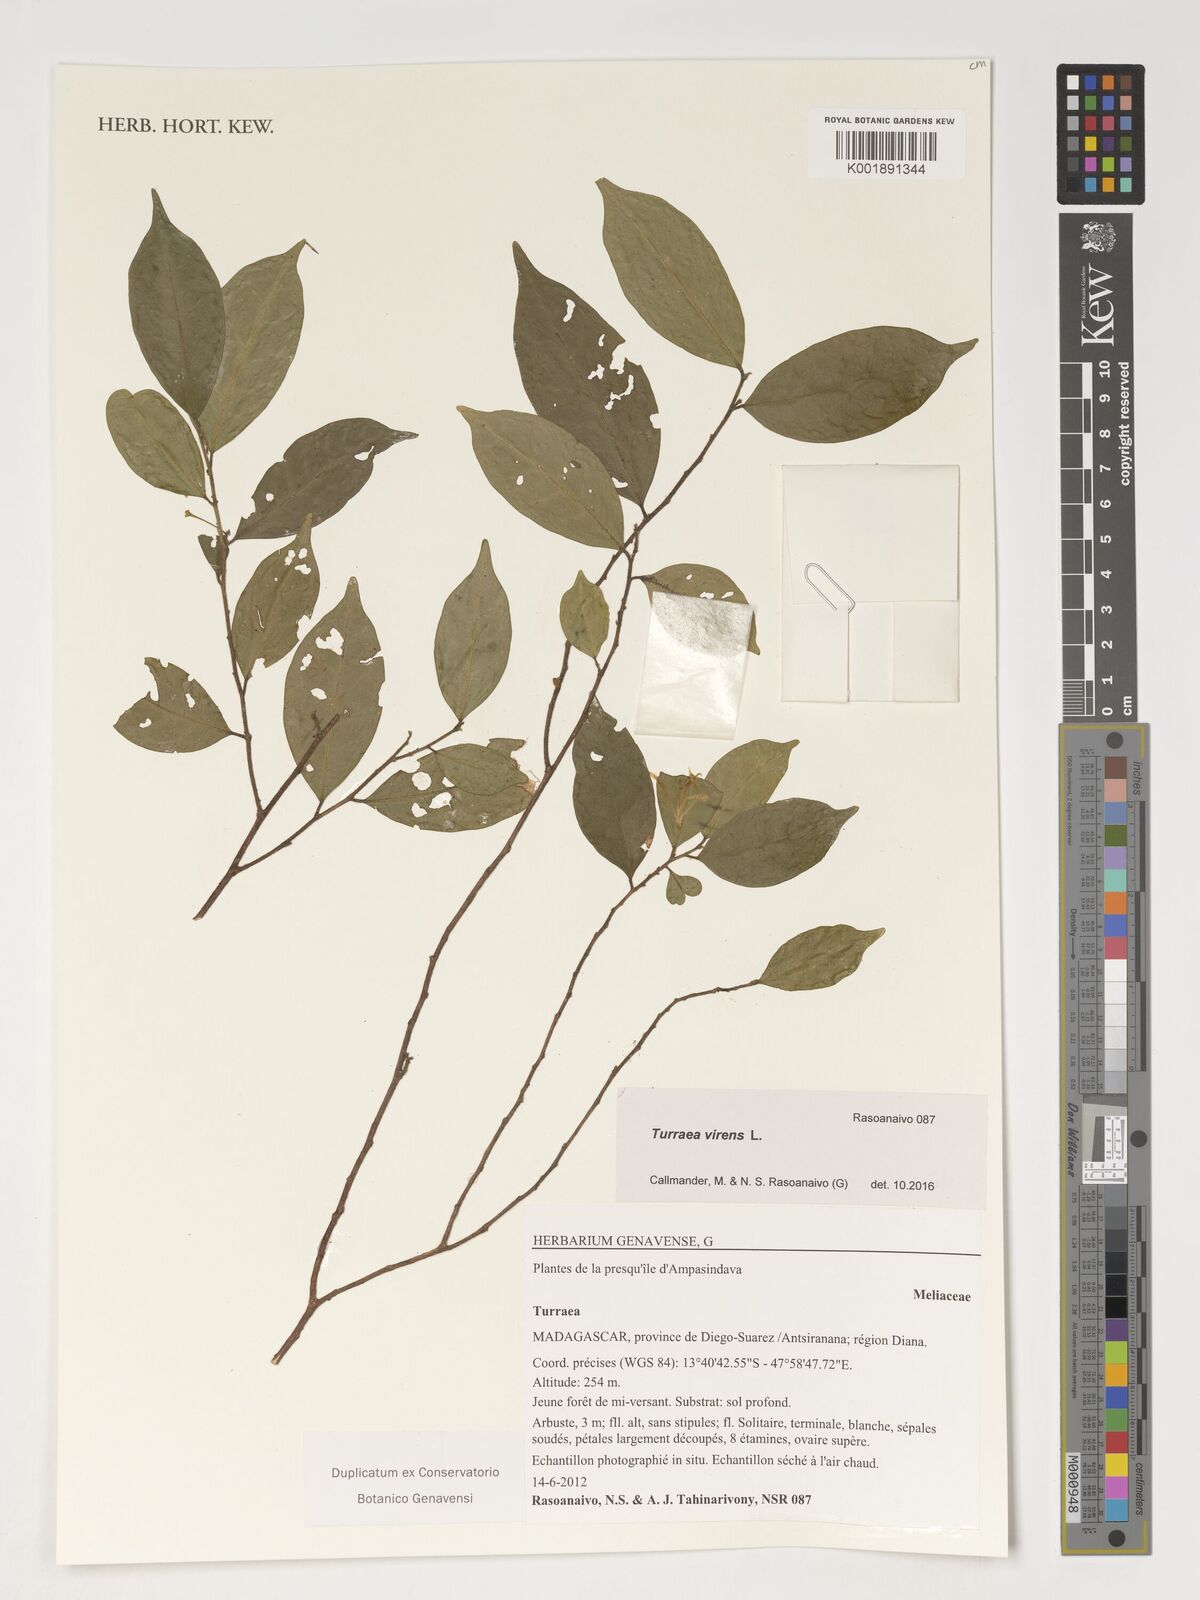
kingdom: Plantae
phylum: Tracheophyta
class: Magnoliopsida
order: Sapindales
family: Meliaceae
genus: Turraea
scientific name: Turraea virens
